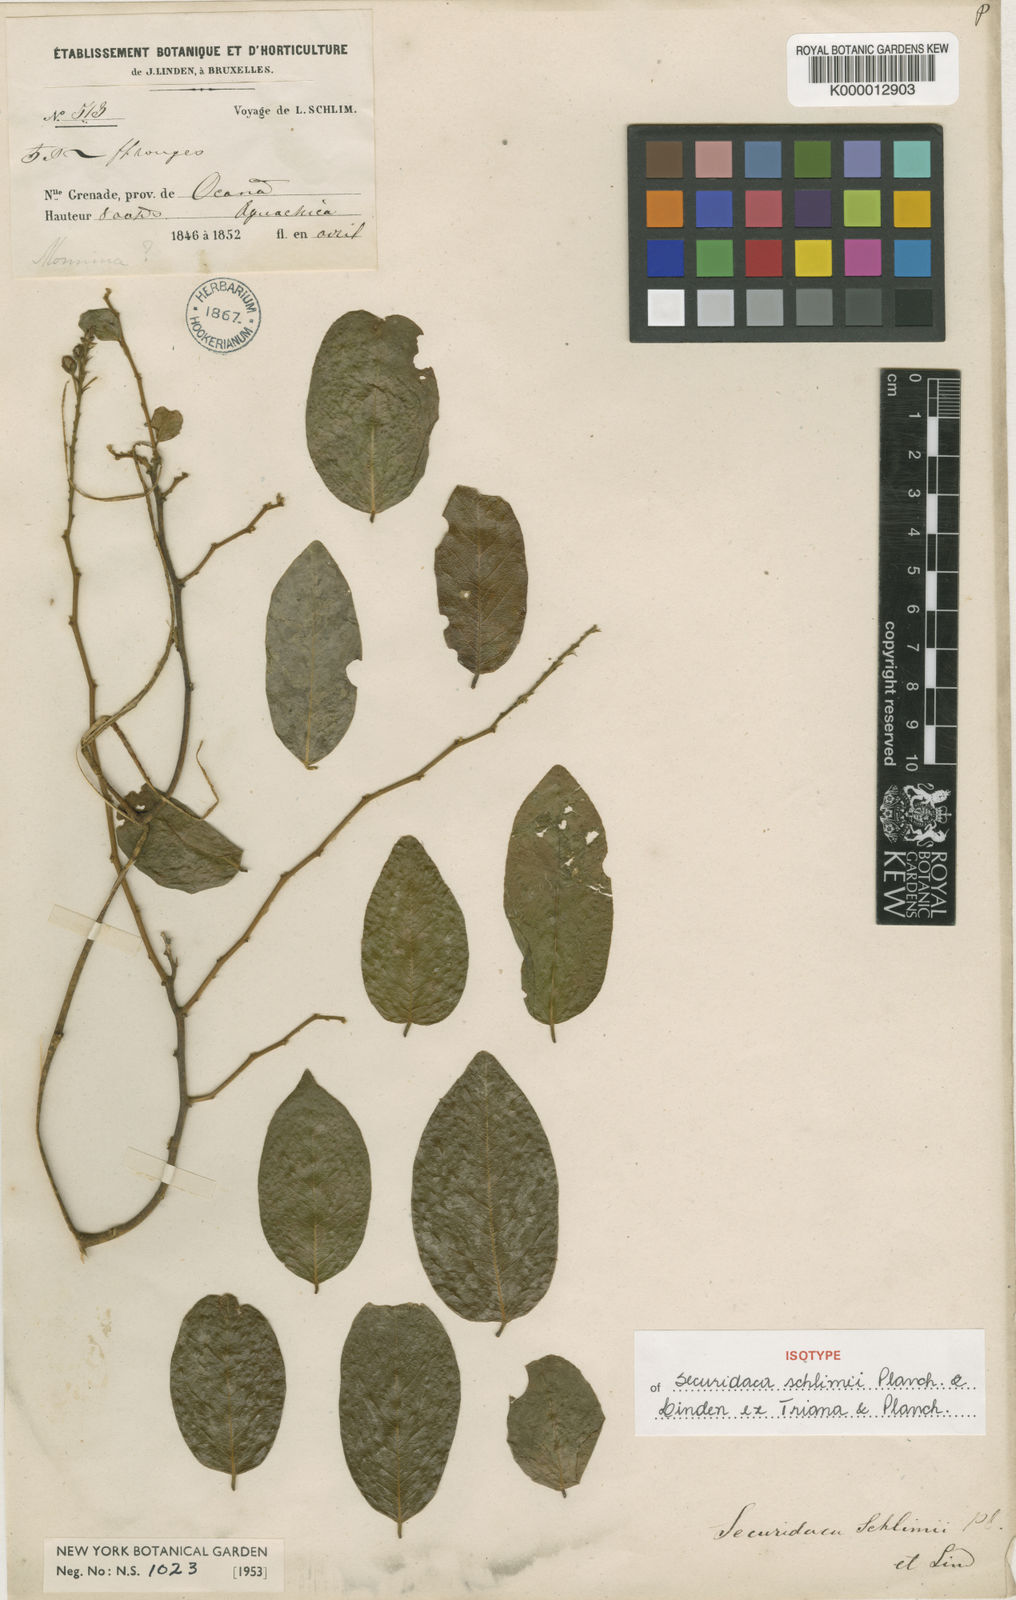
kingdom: Plantae
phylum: Tracheophyta
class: Magnoliopsida
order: Fabales
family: Polygalaceae
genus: Securidaca
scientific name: Securidaca schlimii
